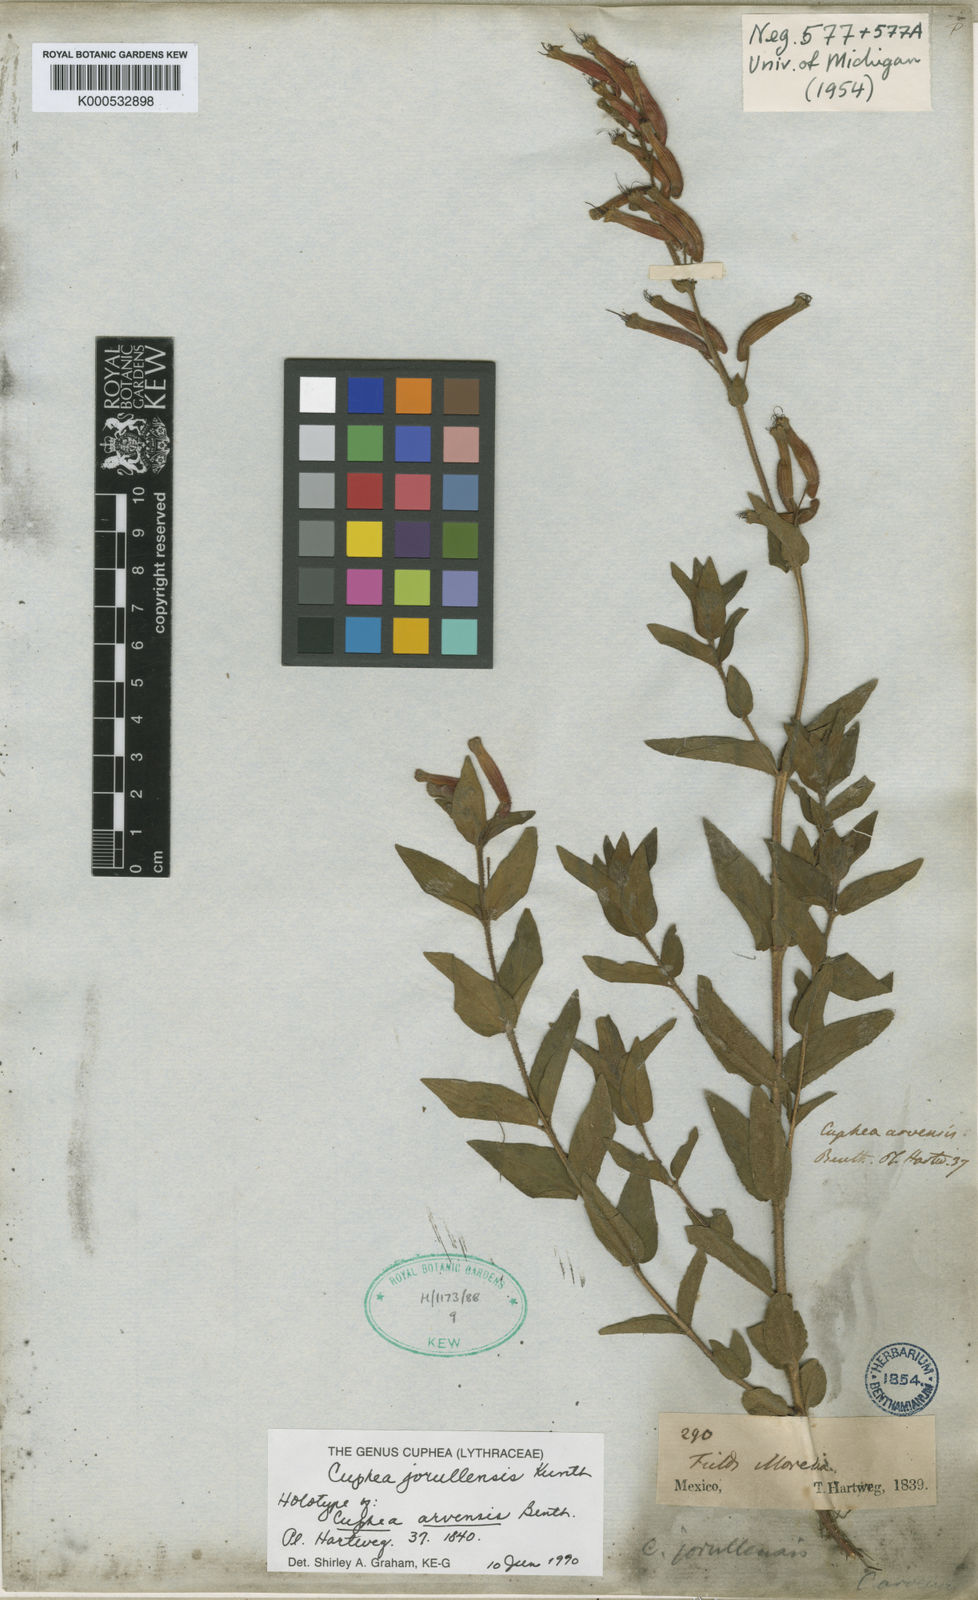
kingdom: Plantae
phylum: Tracheophyta
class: Magnoliopsida
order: Myrtales
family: Lythraceae
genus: Cuphea
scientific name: Cuphea jorullensis
